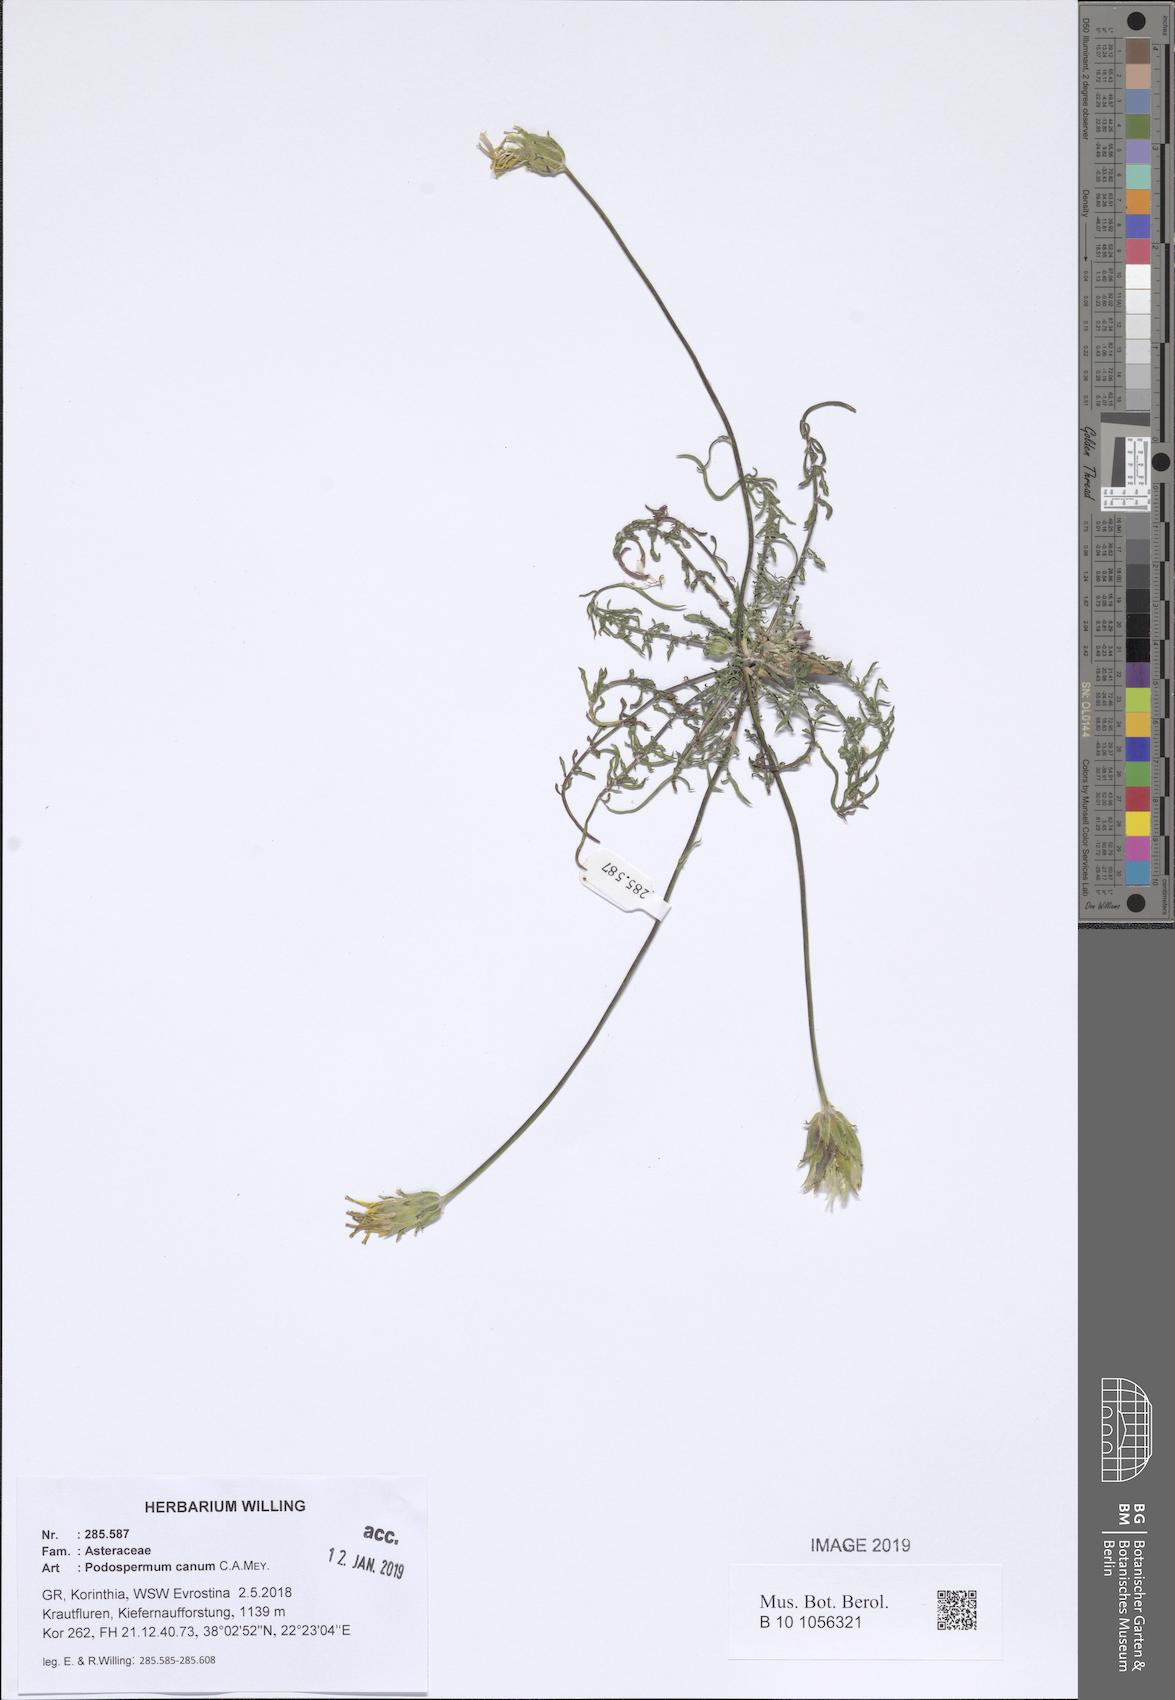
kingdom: Plantae
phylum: Tracheophyta
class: Magnoliopsida
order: Asterales
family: Asteraceae
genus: Scorzonera
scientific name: Scorzonera cana
